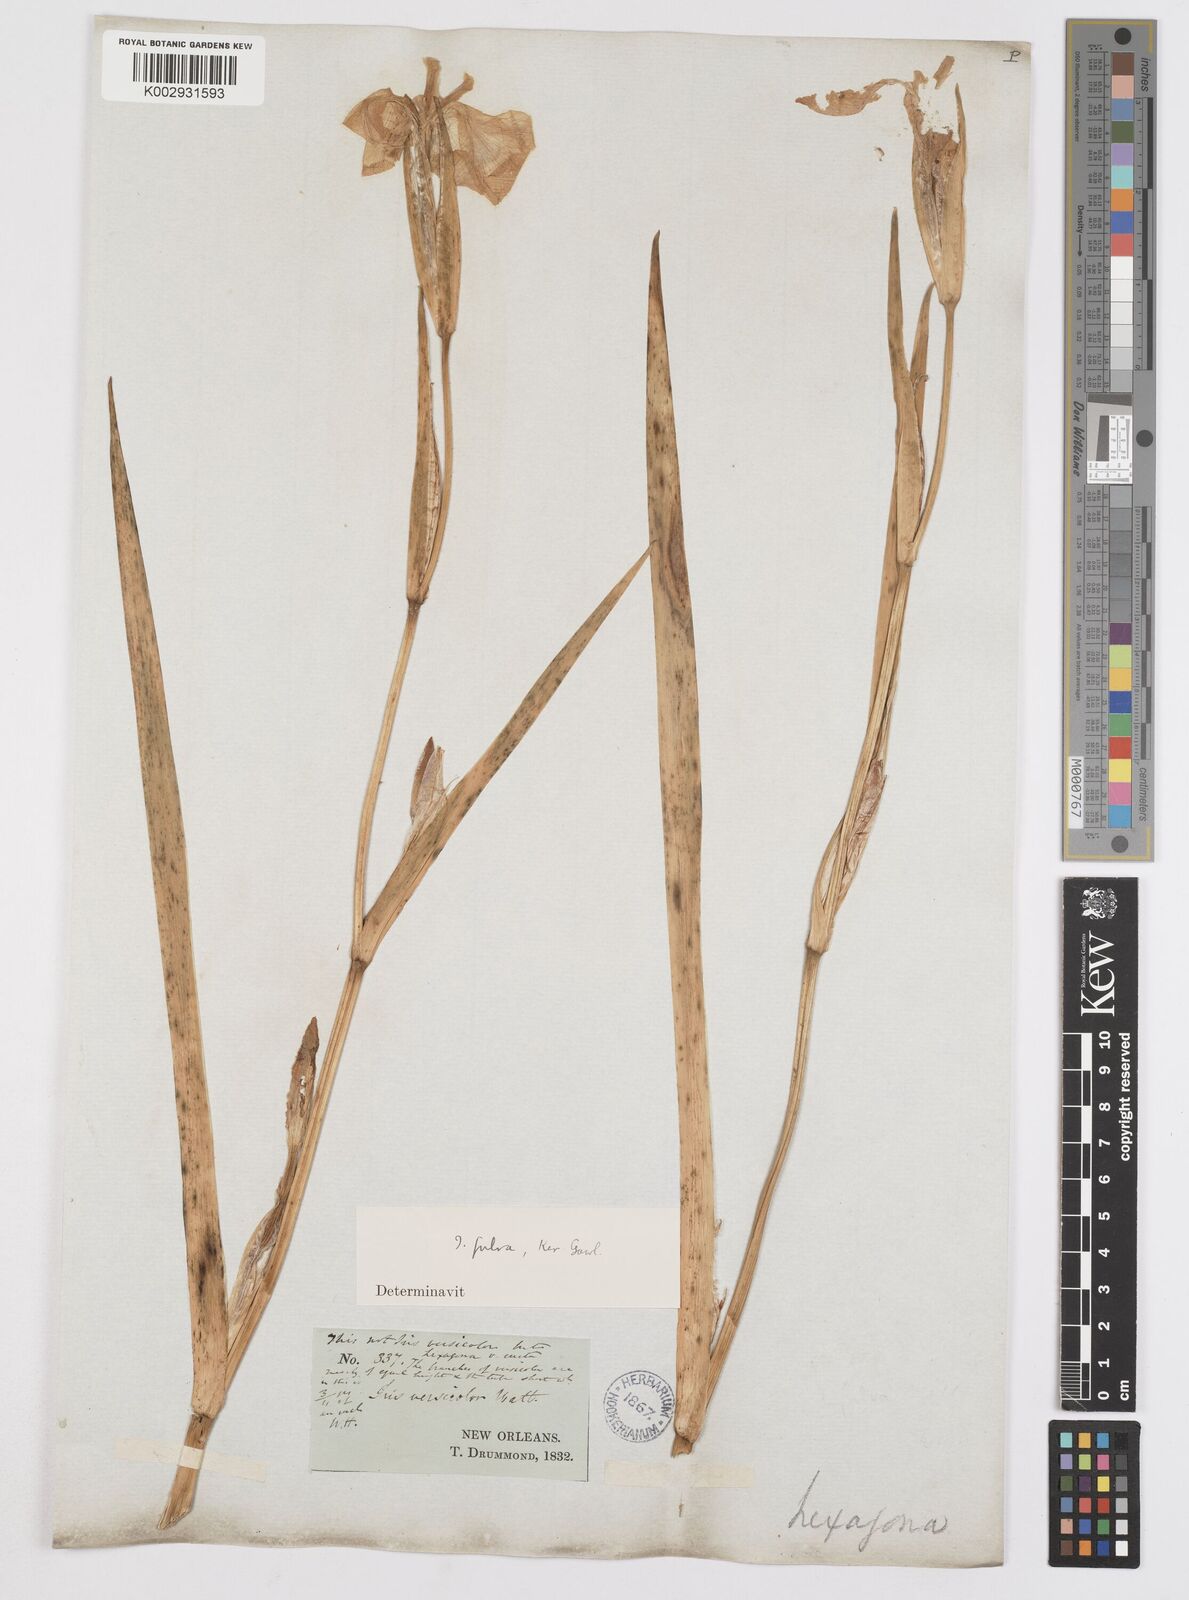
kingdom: Plantae
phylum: Tracheophyta
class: Liliopsida
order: Asparagales
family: Iridaceae
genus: Iris
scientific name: Iris fulva
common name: Copper iris
